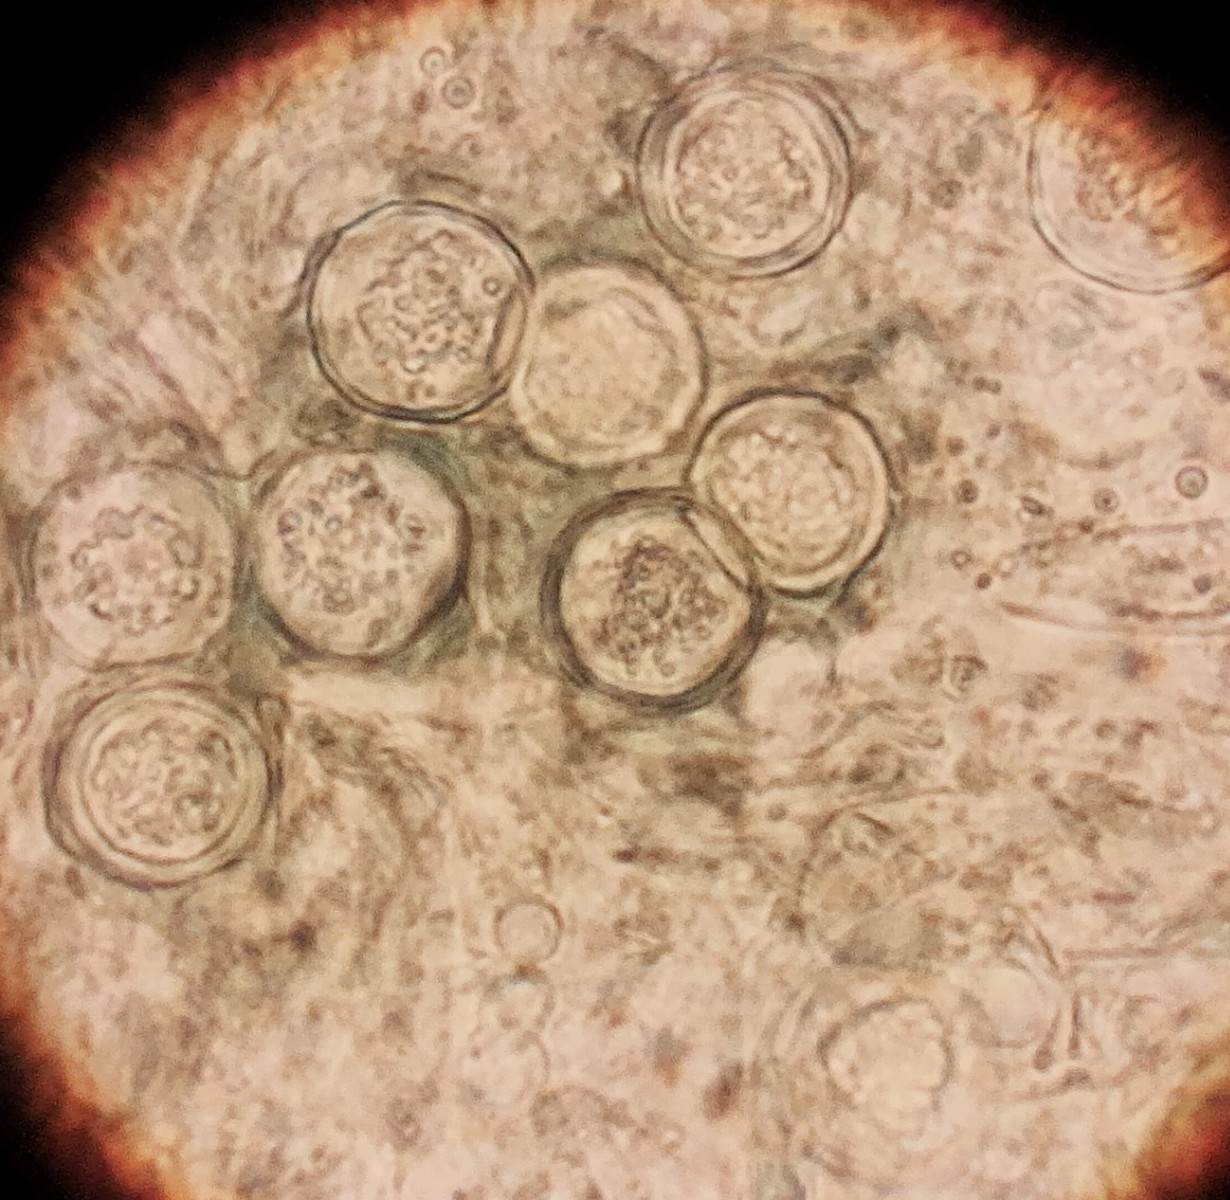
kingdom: Fungi
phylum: Ascomycota
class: Sordariomycetes
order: Hypocreales
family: Hypocreaceae
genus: Hypomyces
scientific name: Hypomyces leotiicola
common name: ravsvamp-snylteskorpe
